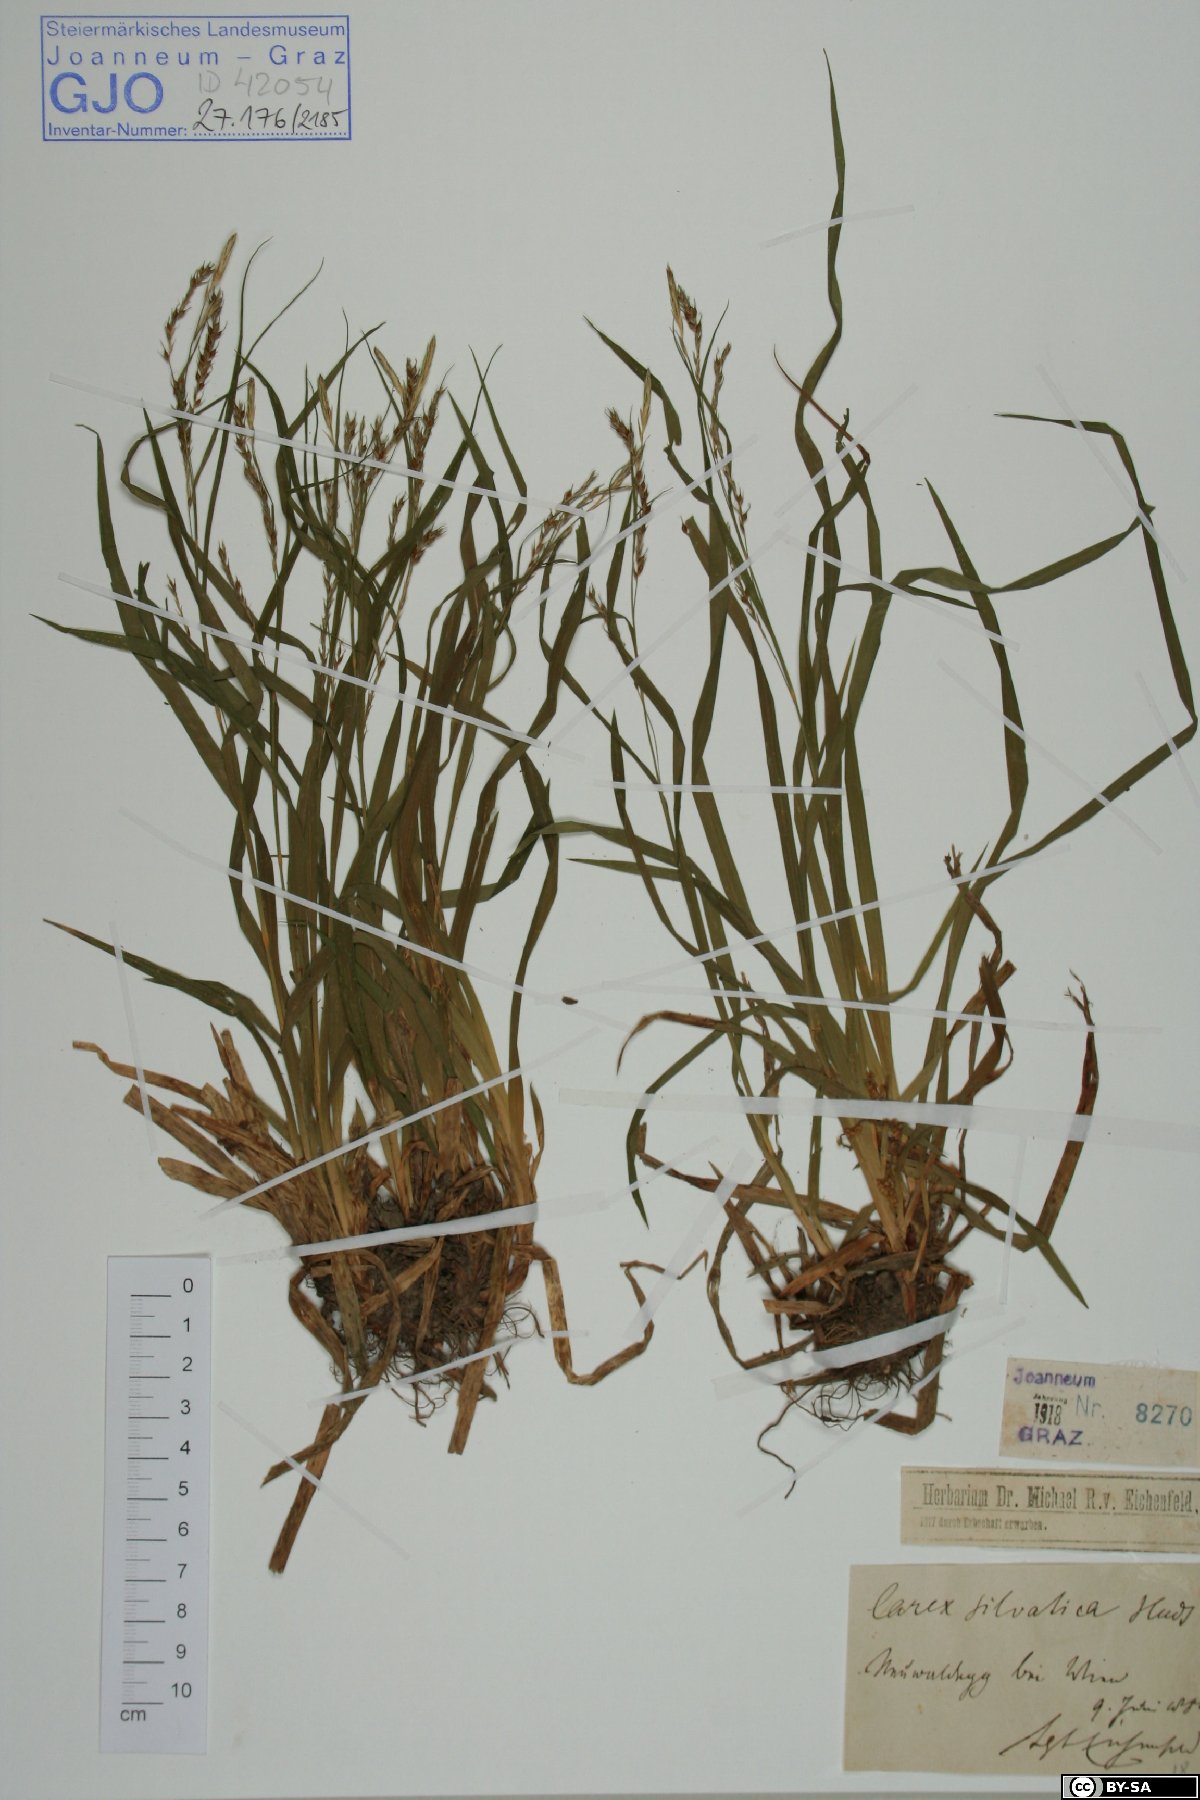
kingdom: Plantae
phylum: Tracheophyta
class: Liliopsida
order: Poales
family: Cyperaceae
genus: Carex
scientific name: Carex sylvatica
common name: Wood-sedge
